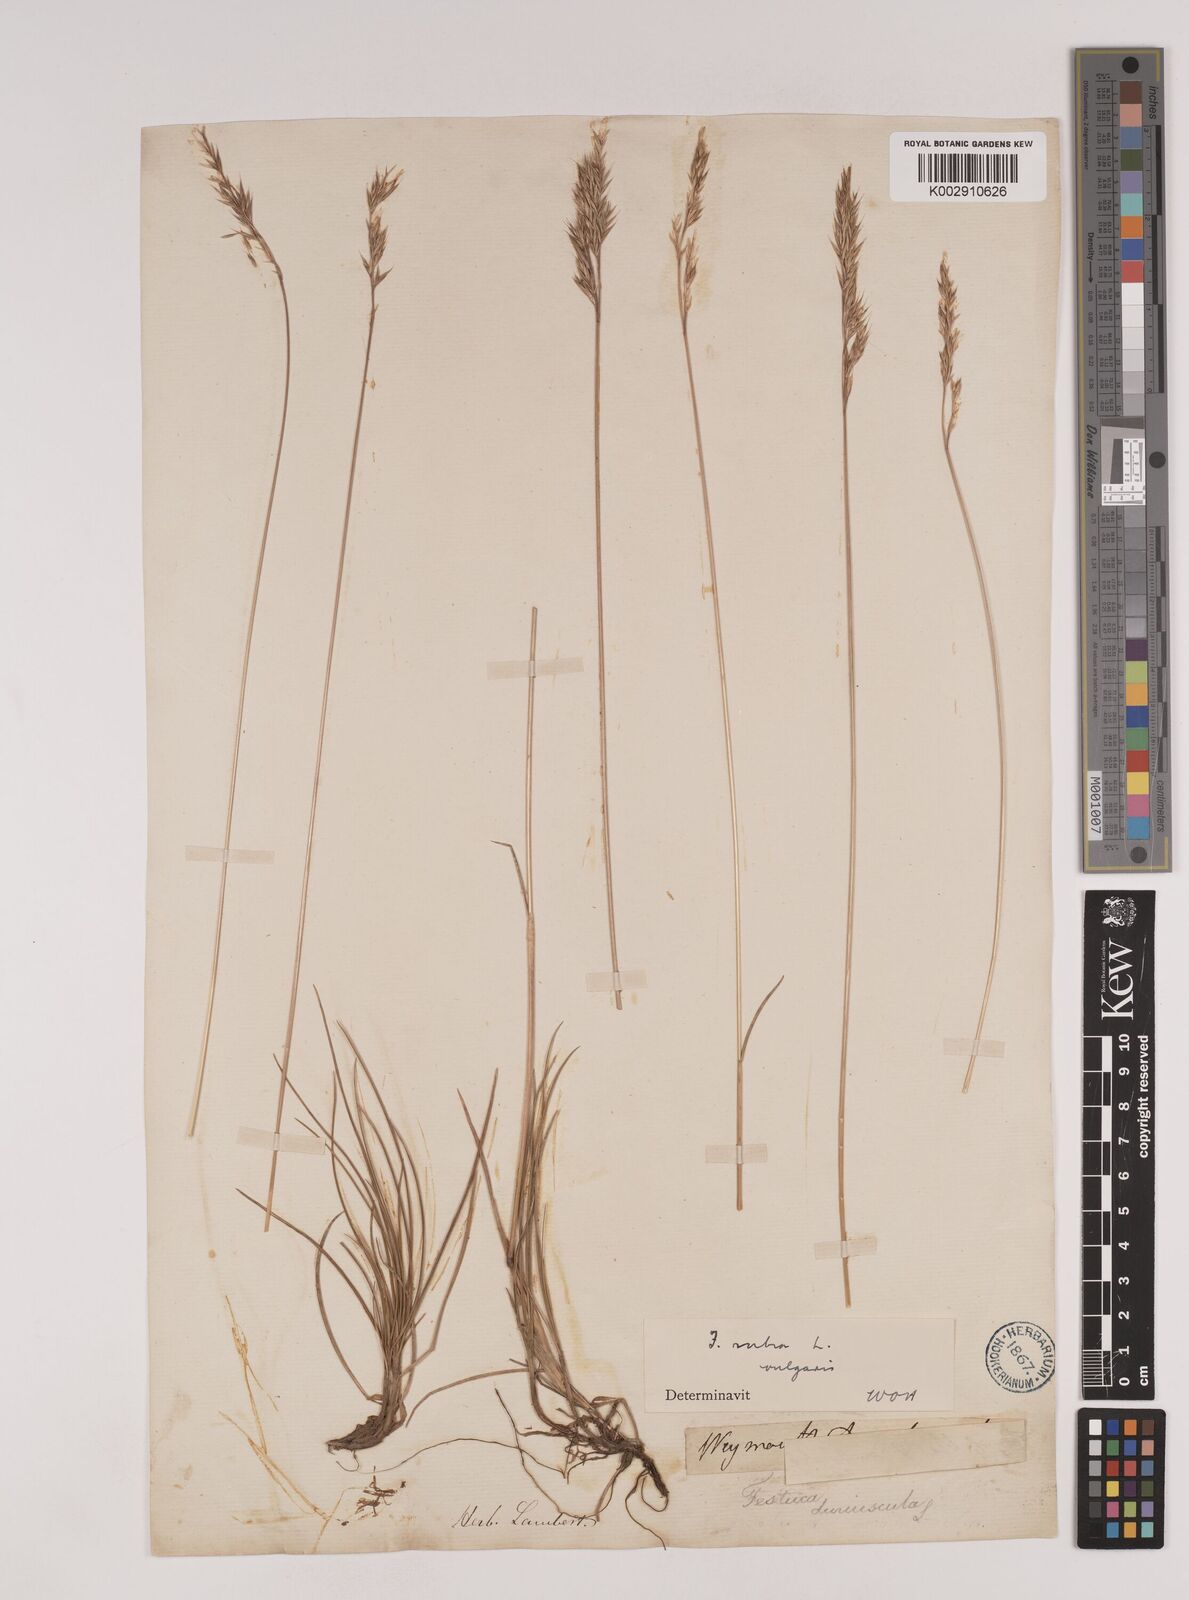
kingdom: Plantae
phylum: Tracheophyta
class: Liliopsida
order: Poales
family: Poaceae
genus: Festuca
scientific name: Festuca rubra
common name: Red fescue
